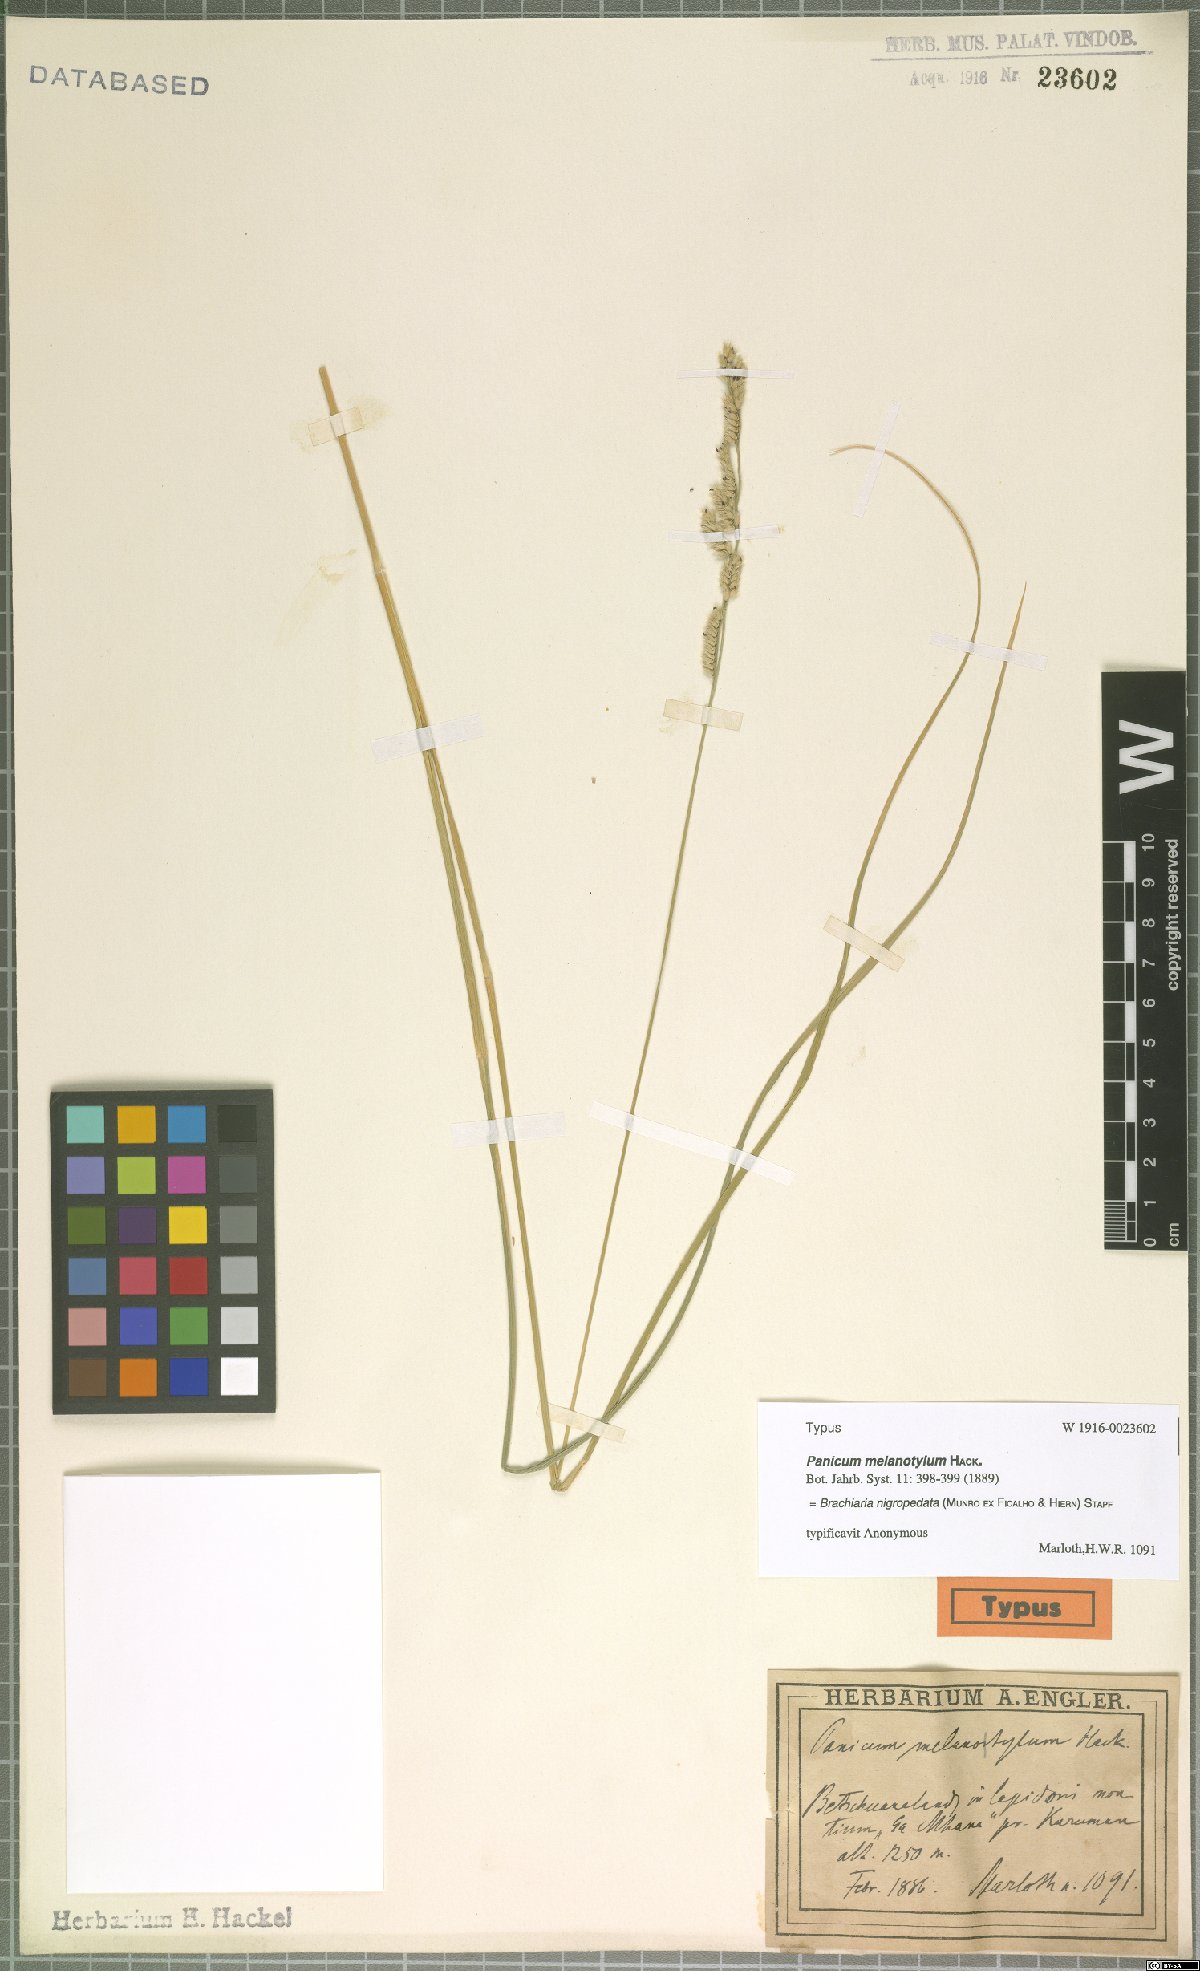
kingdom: Plantae
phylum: Tracheophyta
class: Liliopsida
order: Poales
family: Poaceae
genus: Urochloa
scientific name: Urochloa nigropedata
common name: Spotted signal grass
